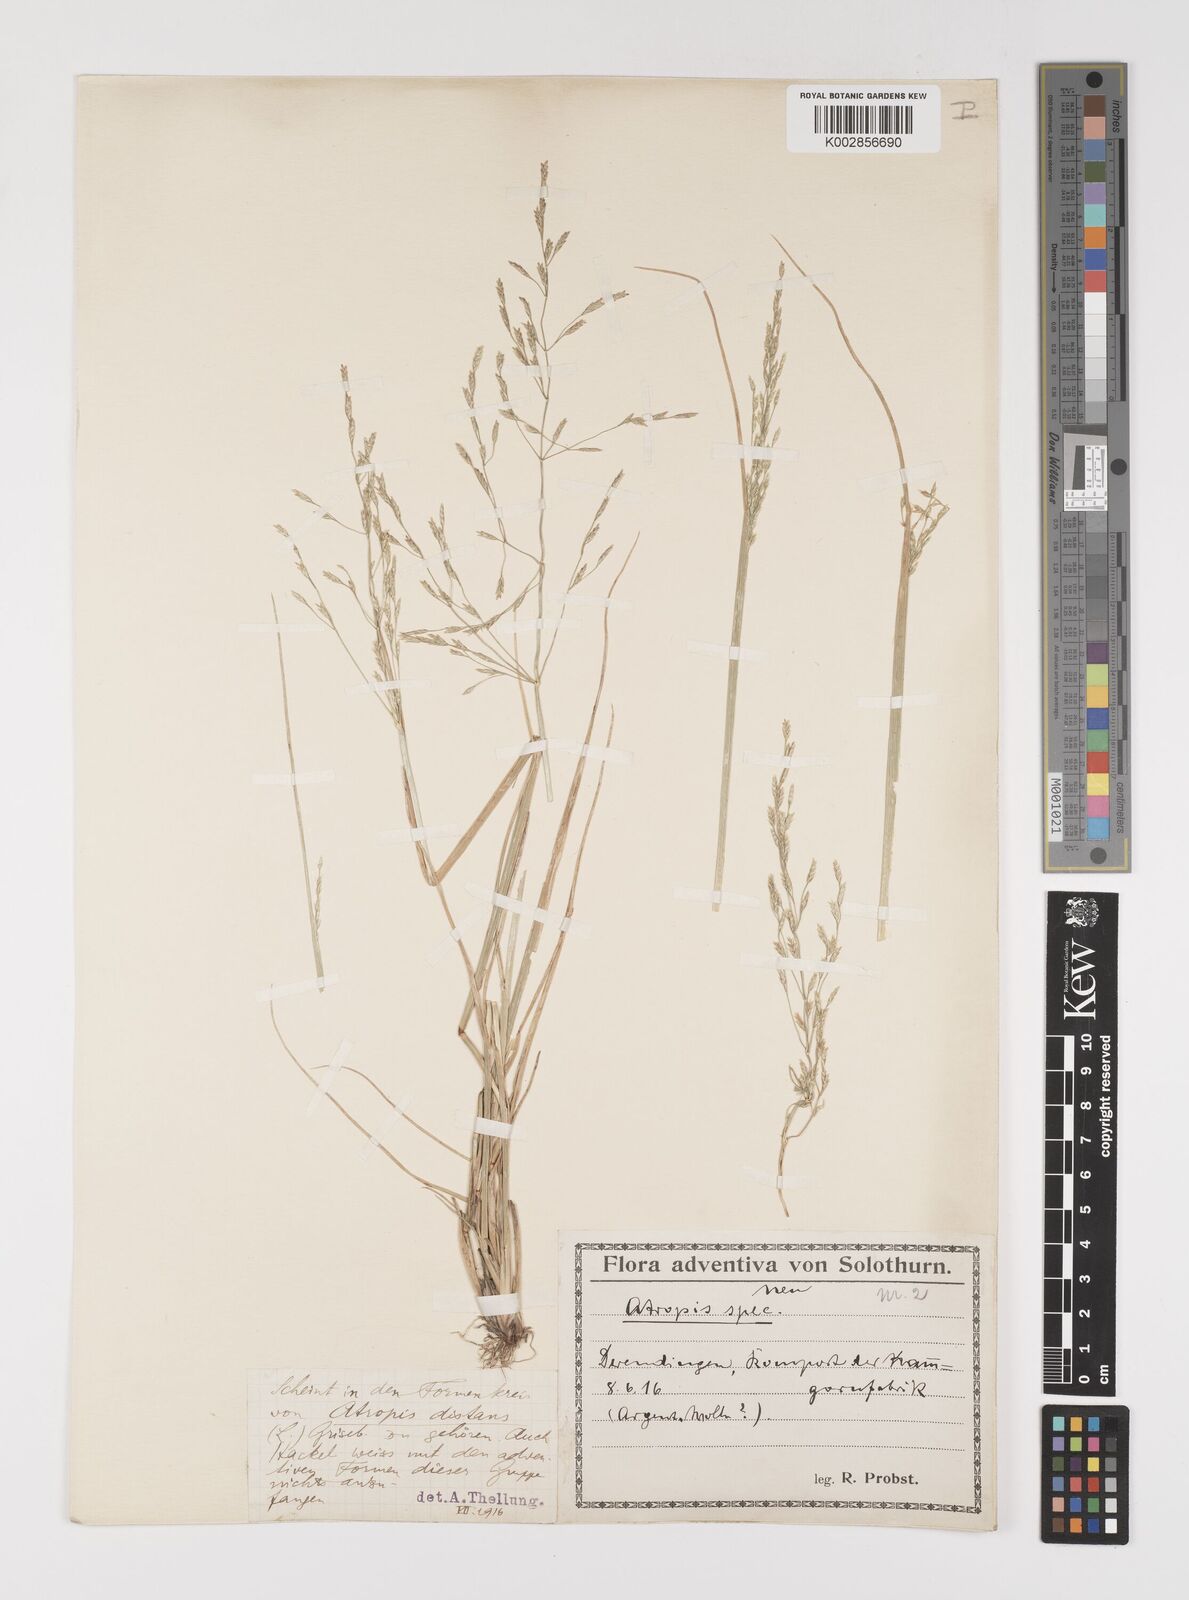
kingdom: Plantae
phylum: Tracheophyta
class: Liliopsida
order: Poales
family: Poaceae
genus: Puccinellia
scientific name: Puccinellia
